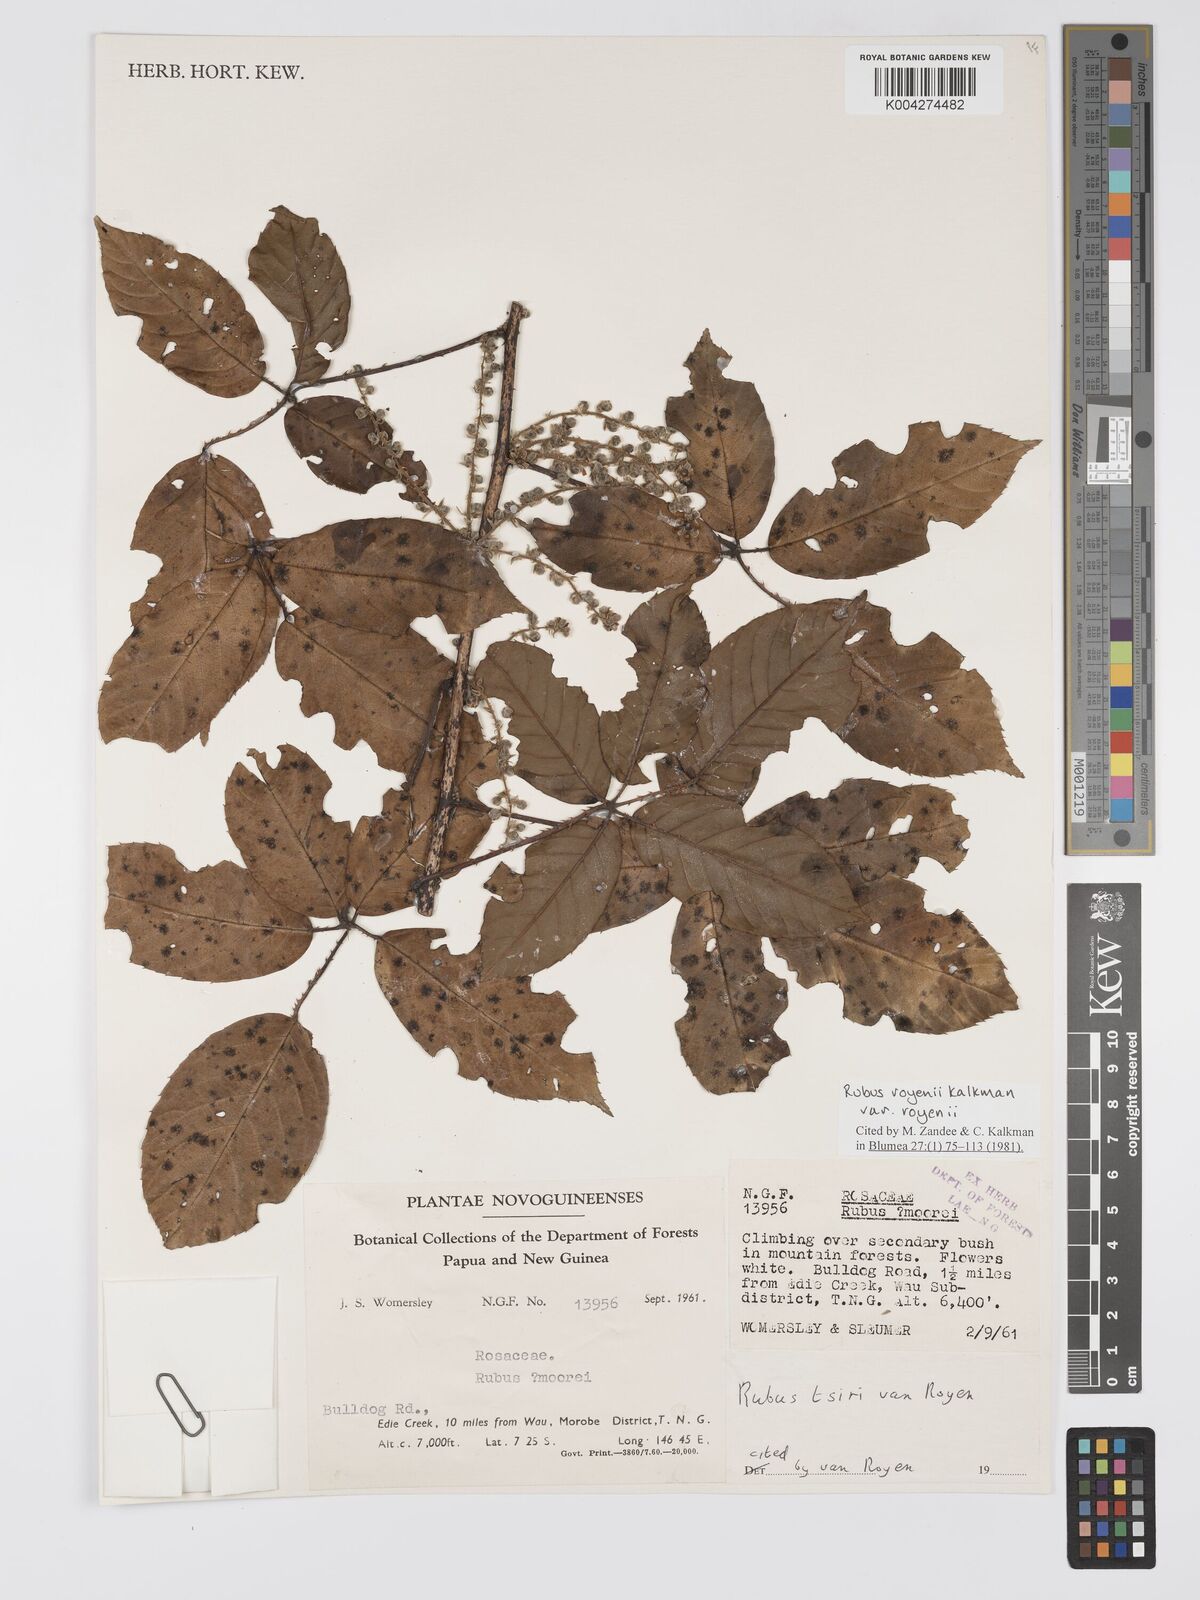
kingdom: Plantae
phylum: Tracheophyta
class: Magnoliopsida
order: Rosales
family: Rosaceae
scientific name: Rosaceae
